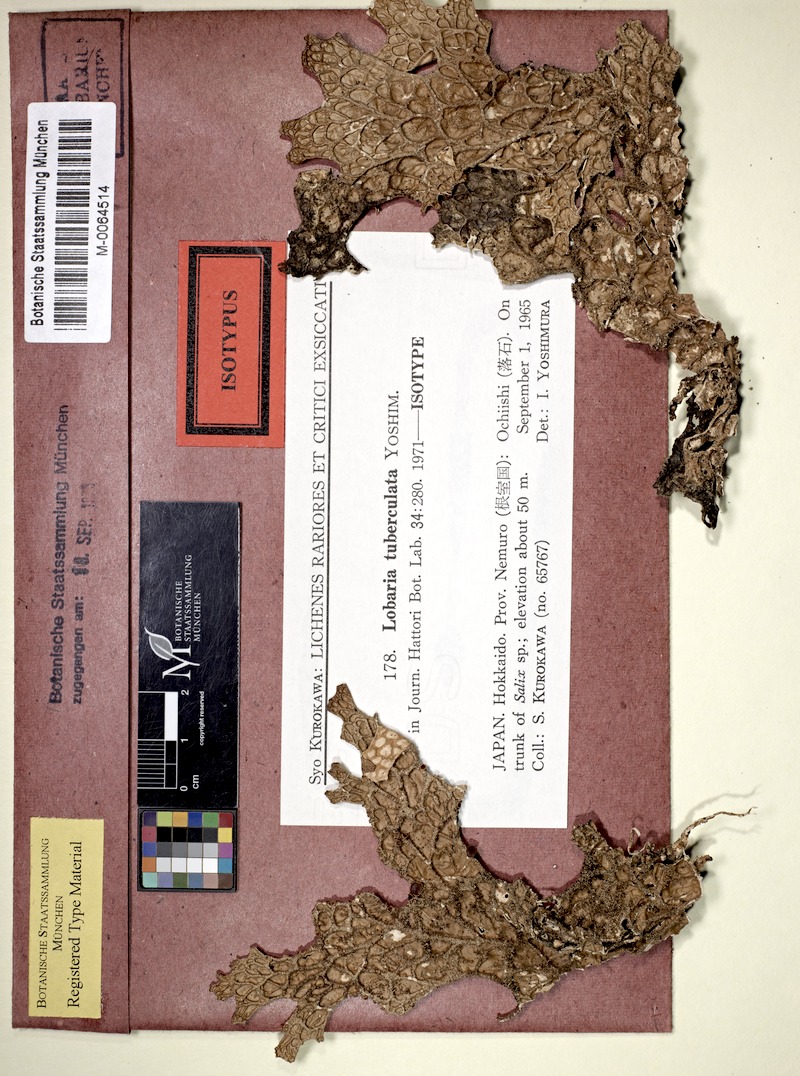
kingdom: Fungi
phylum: Ascomycota
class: Lecanoromycetes
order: Peltigerales
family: Lobariaceae
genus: Lobaria
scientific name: Lobaria tuberculata
